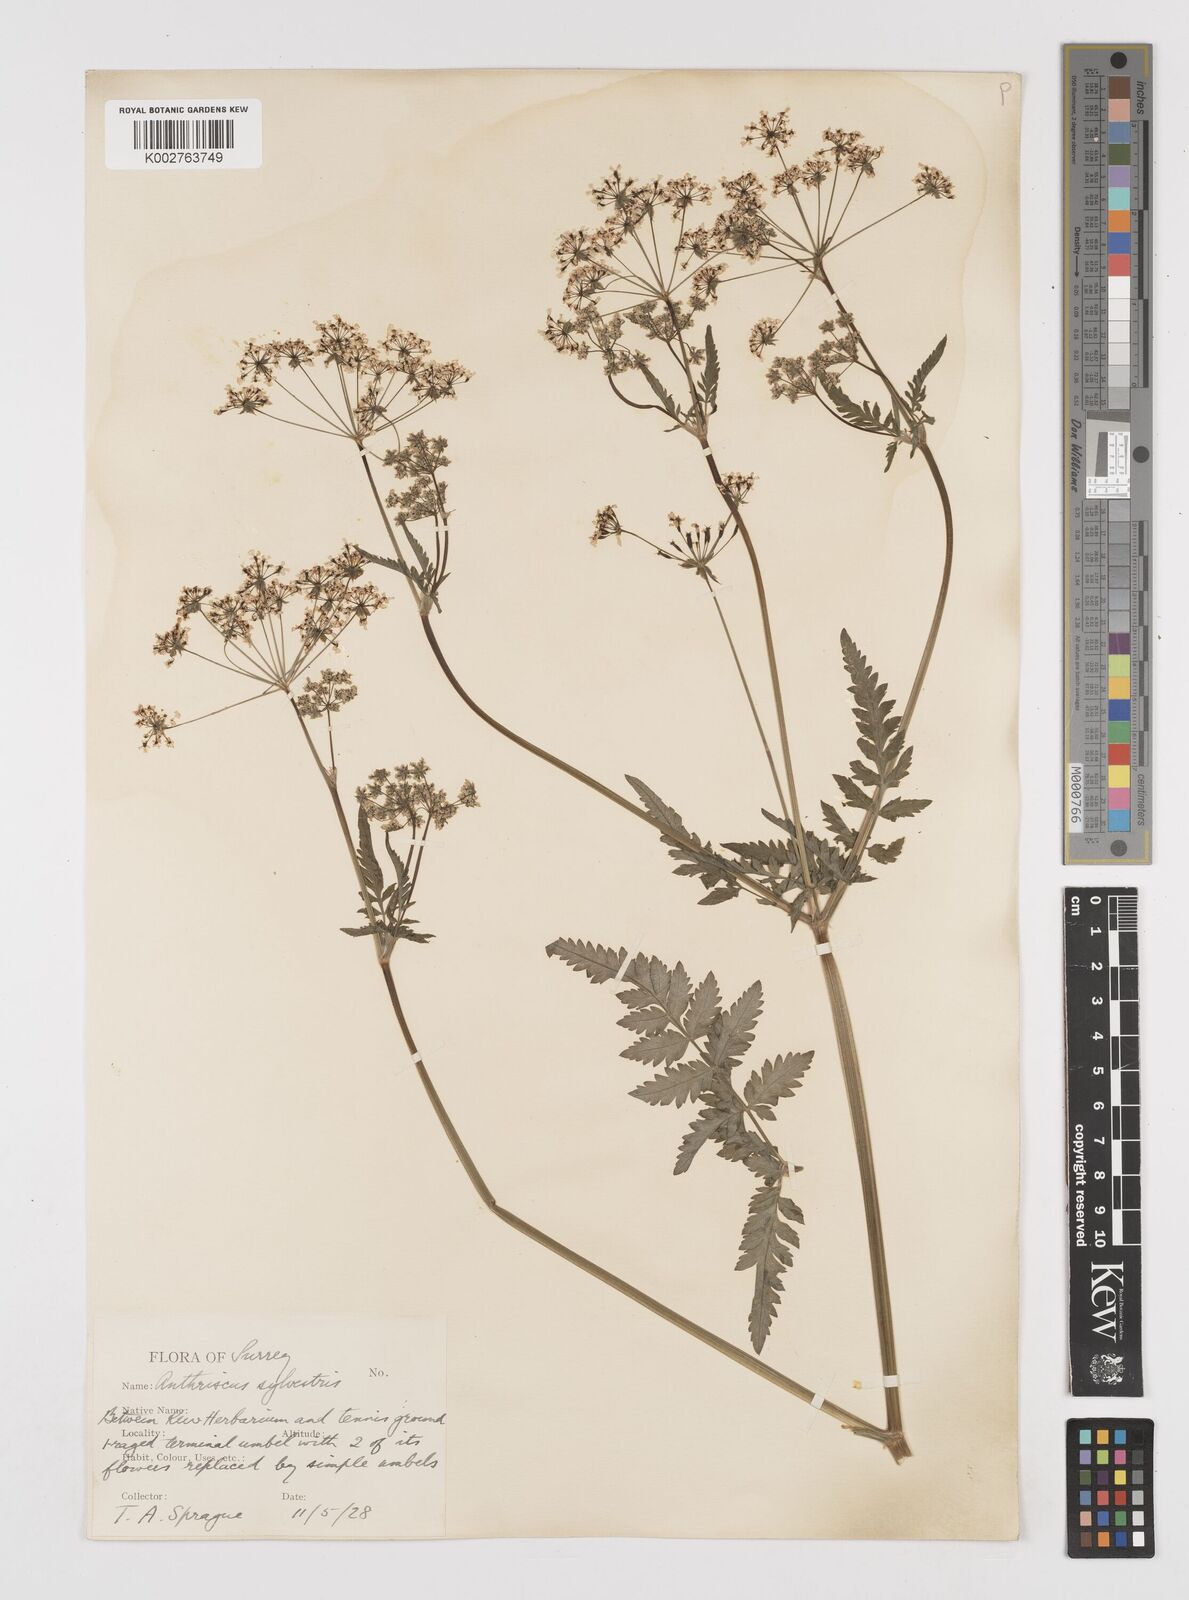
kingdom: Plantae
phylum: Tracheophyta
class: Magnoliopsida
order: Apiales
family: Apiaceae
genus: Anthriscus
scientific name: Anthriscus sylvestris
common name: Cow parsley
